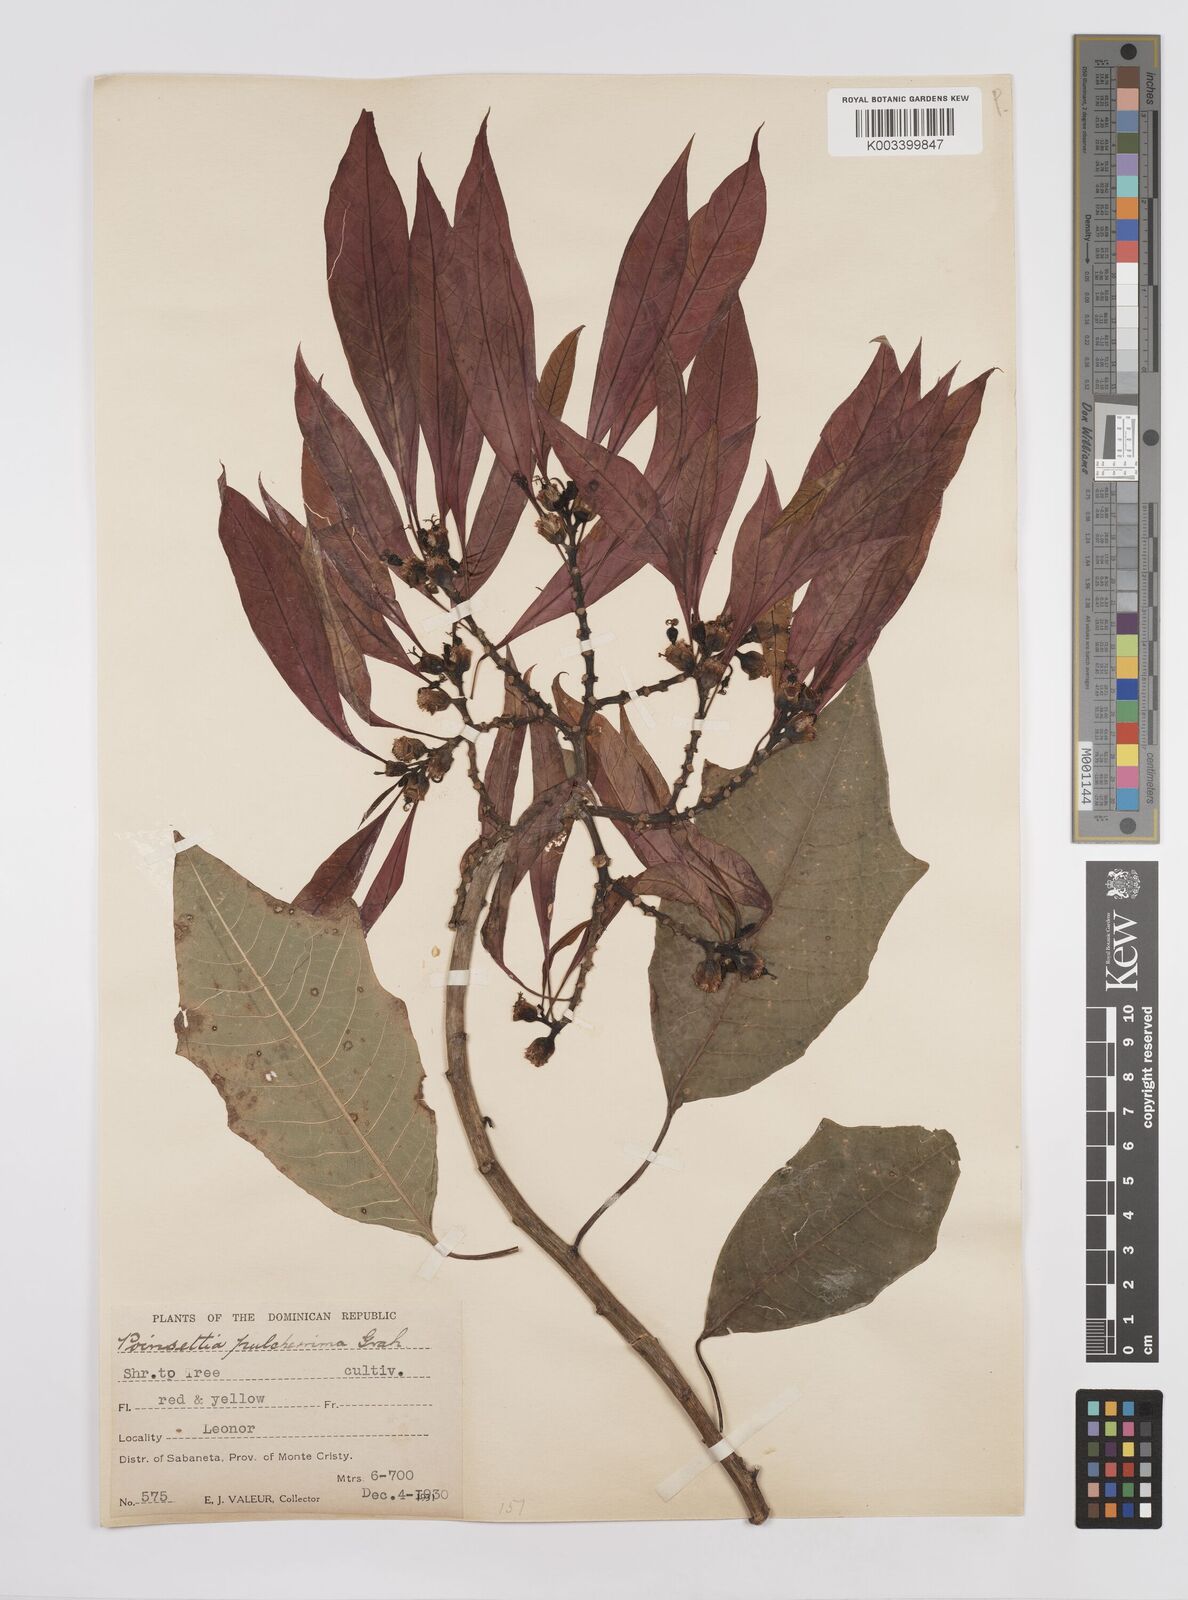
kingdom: Plantae
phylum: Tracheophyta
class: Magnoliopsida
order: Malpighiales
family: Euphorbiaceae
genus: Euphorbia
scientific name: Euphorbia pulcherrima
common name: Christmas-flower
